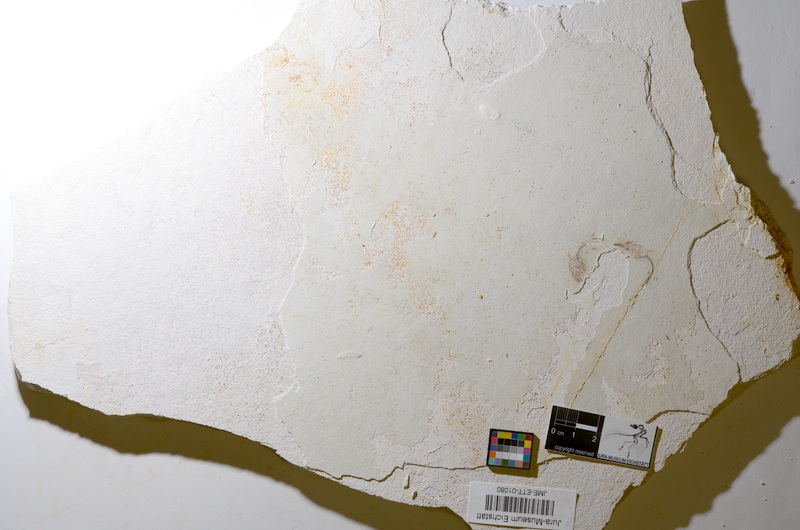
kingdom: Animalia
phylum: Chordata
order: Salmoniformes
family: Orthogonikleithridae
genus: Orthogonikleithrus
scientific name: Orthogonikleithrus hoelli
